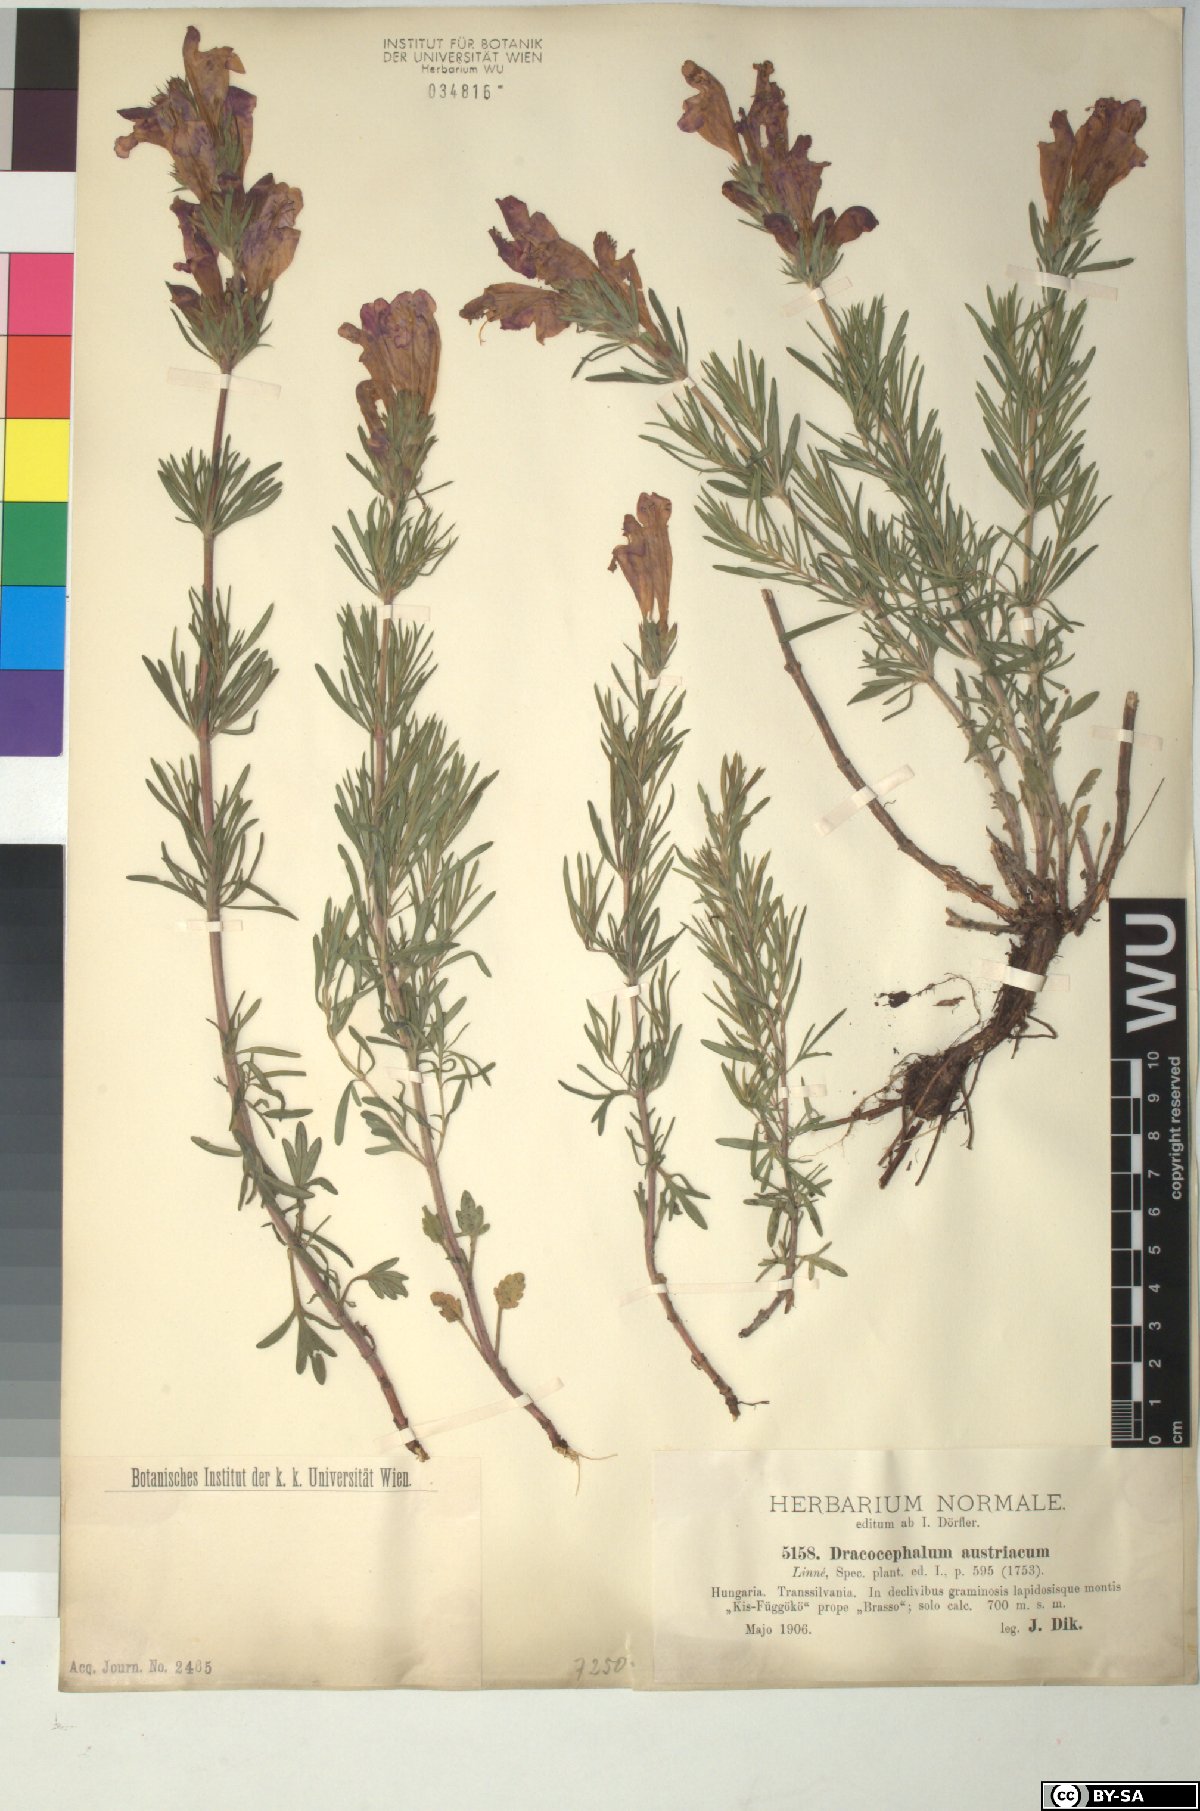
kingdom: Plantae
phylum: Tracheophyta
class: Magnoliopsida
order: Lamiales
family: Lamiaceae
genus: Dracocephalum
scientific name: Dracocephalum austriacum
